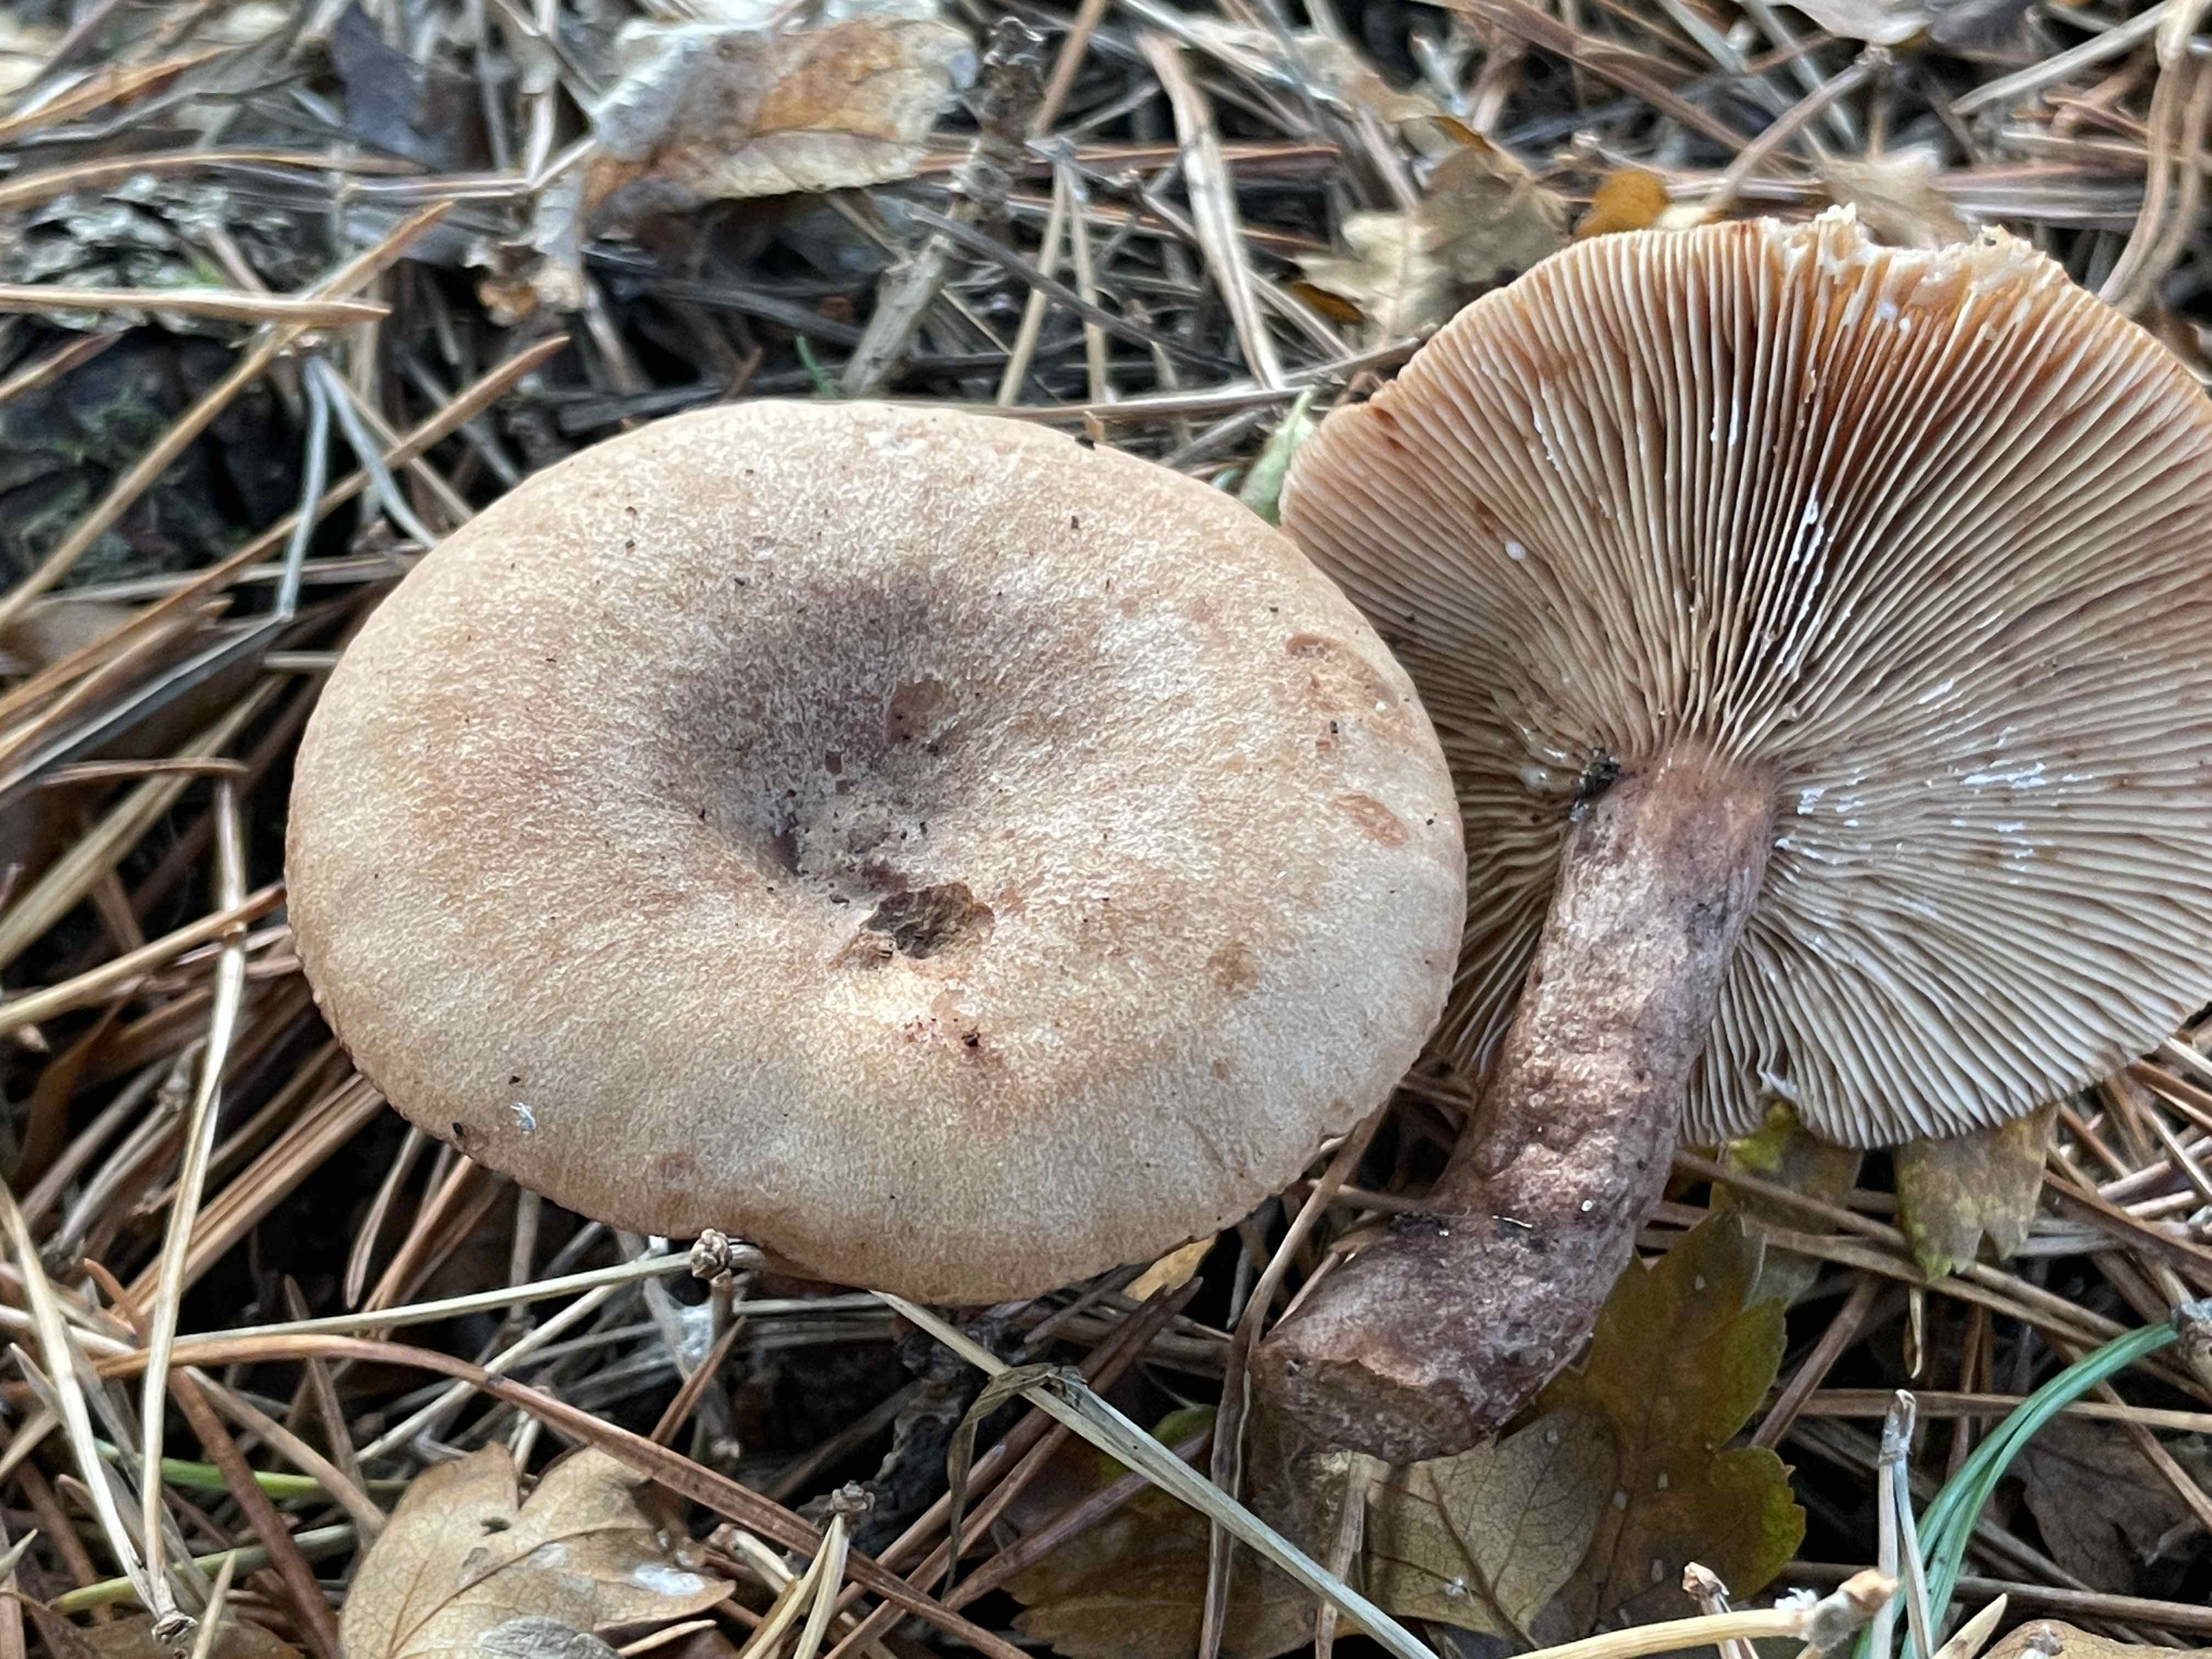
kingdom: Fungi
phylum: Basidiomycota
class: Agaricomycetes
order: Russulales
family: Russulaceae
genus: Lactarius
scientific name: Lactarius quietus
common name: ege-mælkehat
